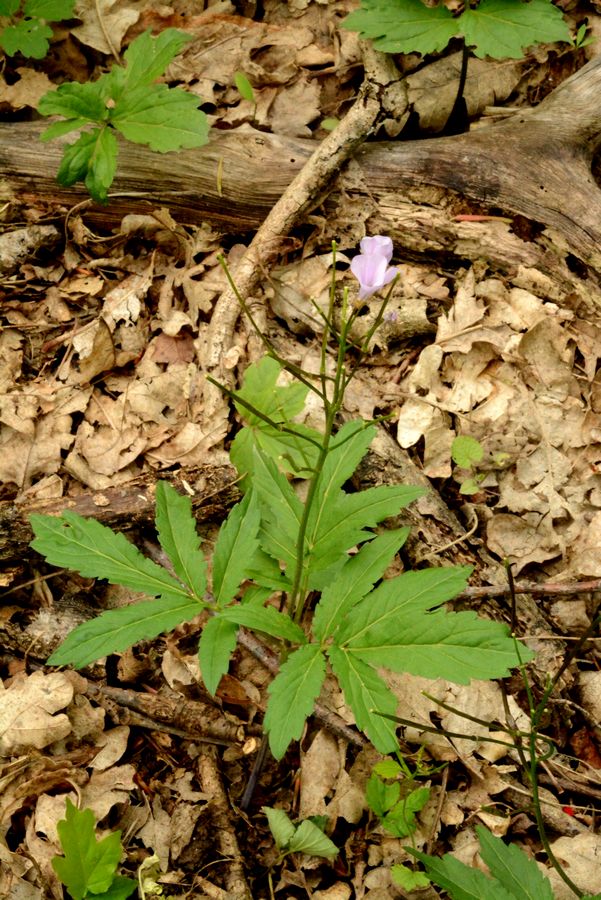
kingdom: Plantae
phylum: Tracheophyta
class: Magnoliopsida
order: Brassicales
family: Brassicaceae
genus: Cardamine
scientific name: Cardamine quinquefolia
